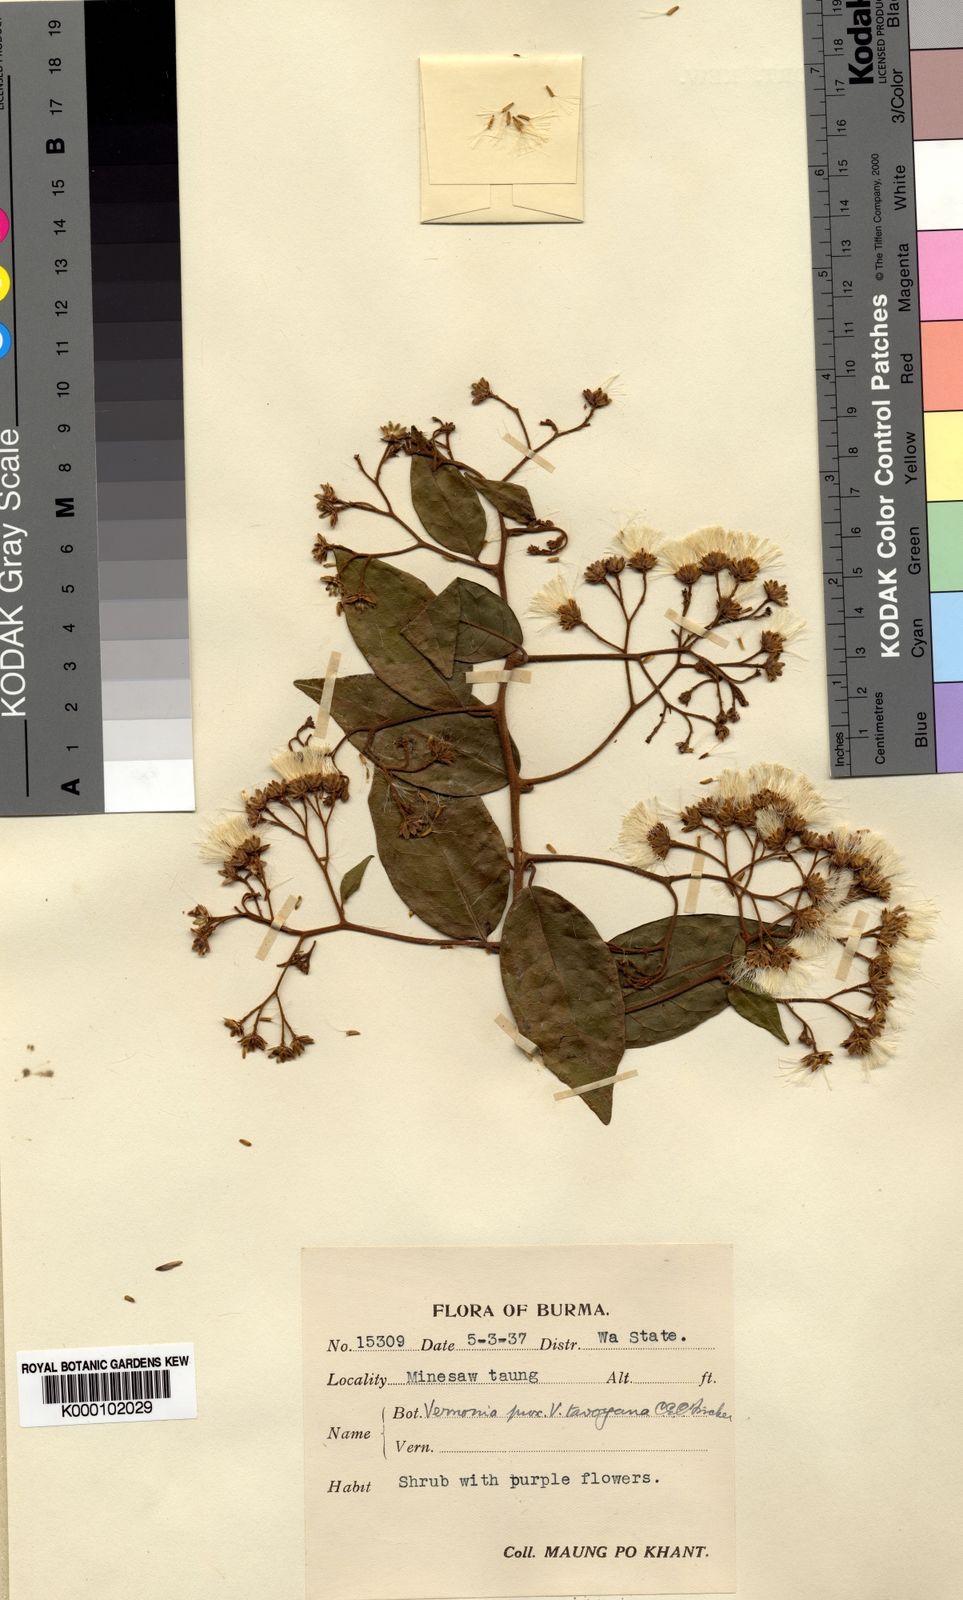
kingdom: Plantae
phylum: Tracheophyta
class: Magnoliopsida
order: Asterales
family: Asteraceae
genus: Decaneuropsis
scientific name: Decaneuropsis blanda
